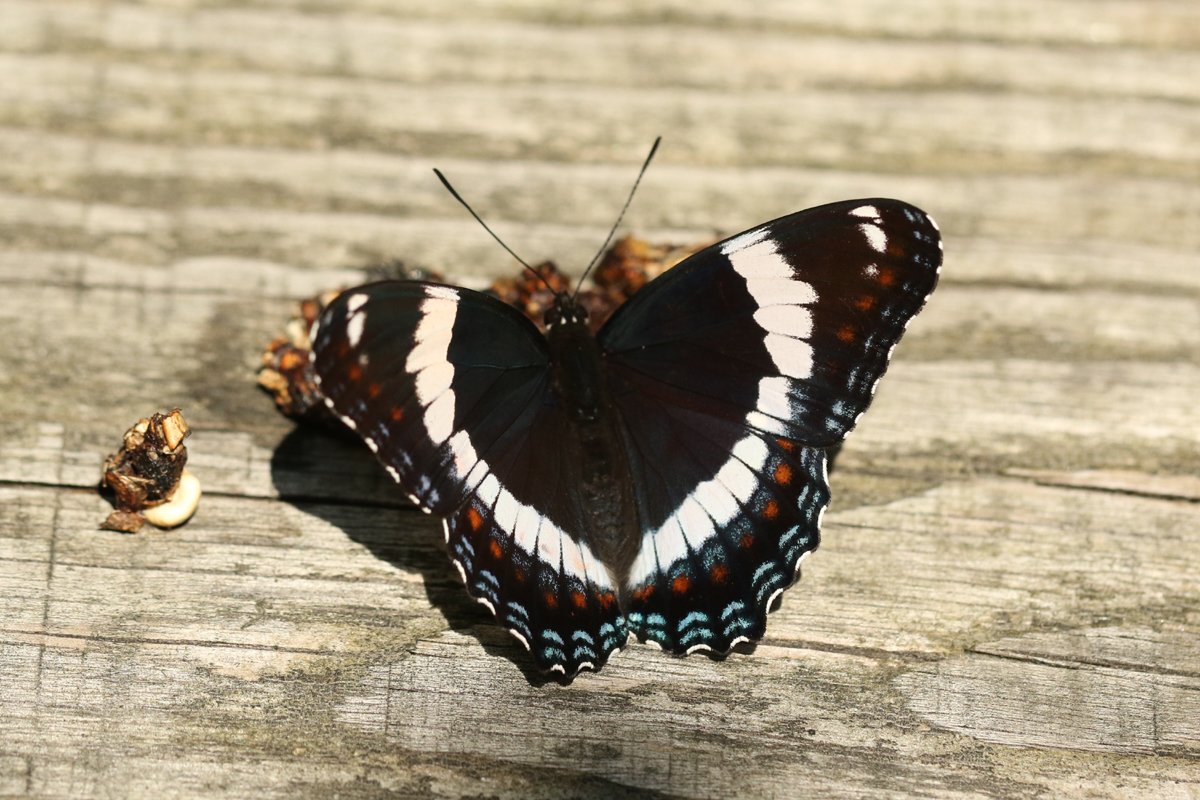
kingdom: Animalia
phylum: Arthropoda
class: Insecta
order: Lepidoptera
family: Nymphalidae
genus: Limenitis
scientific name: Limenitis arthemis
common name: Red-spotted Admiral
